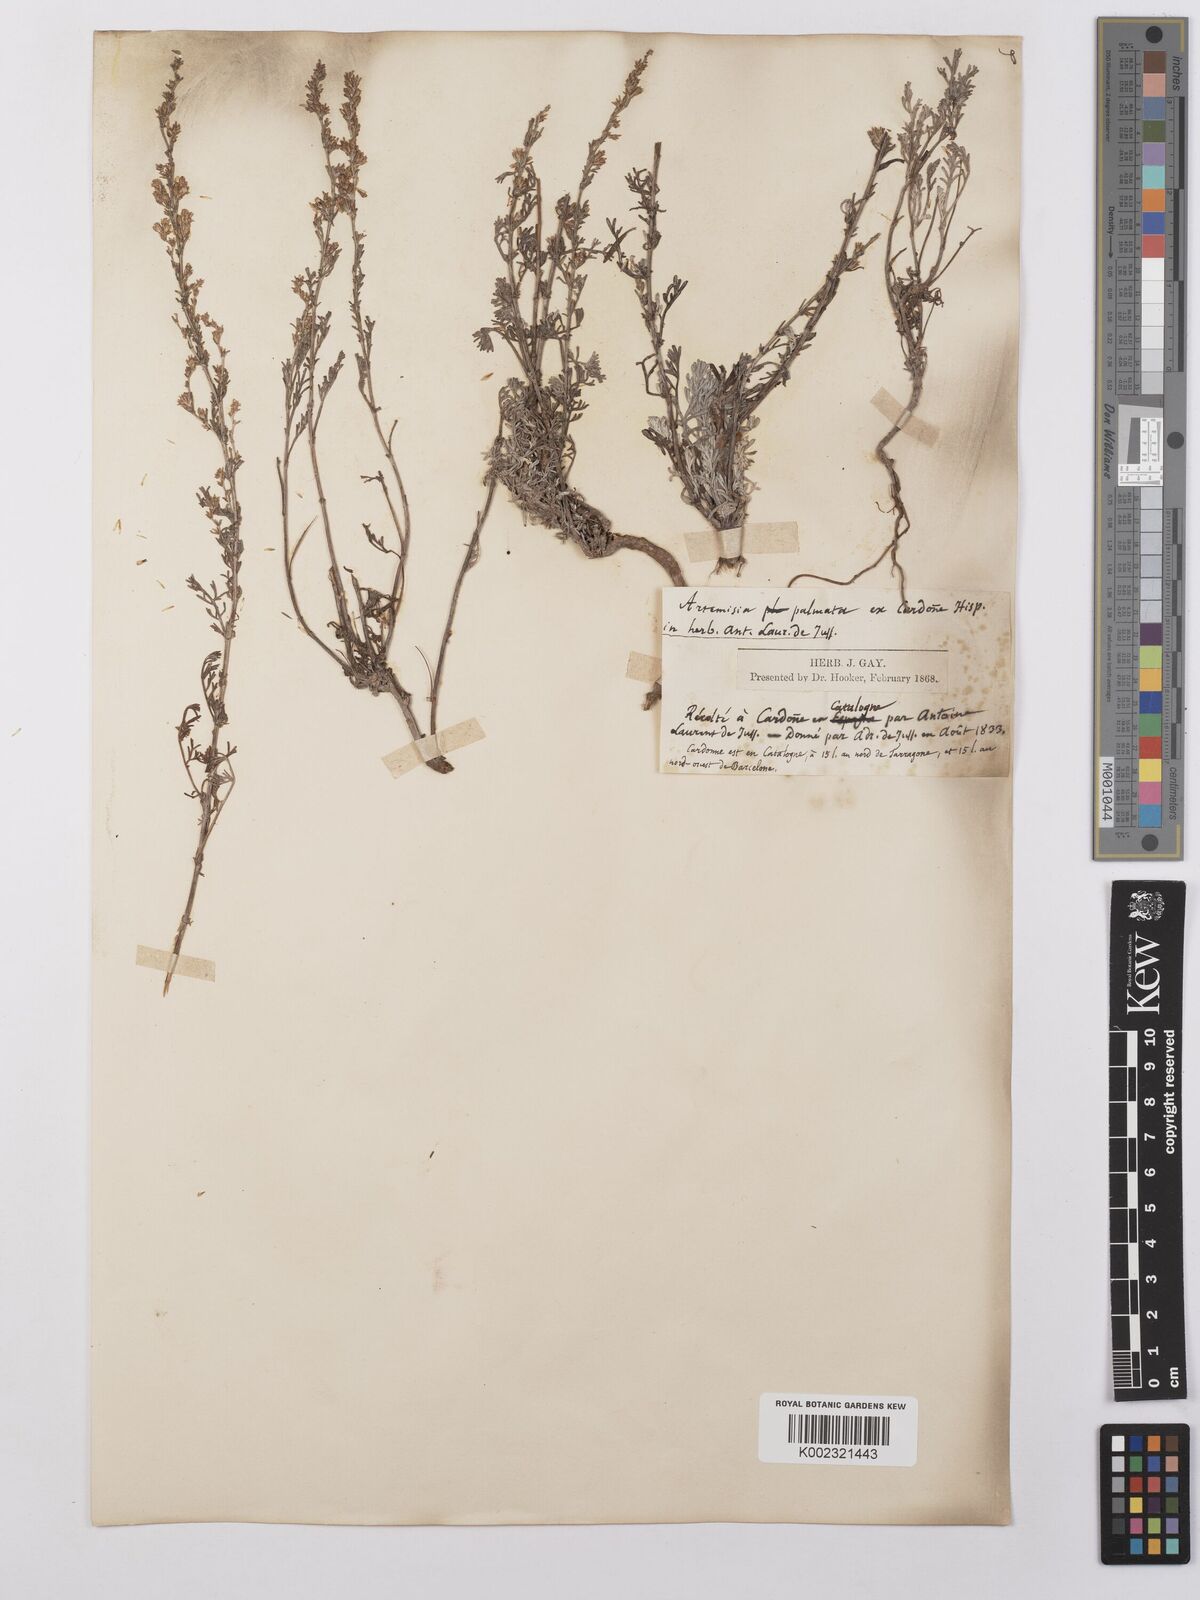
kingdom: Plantae
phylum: Tracheophyta
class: Magnoliopsida
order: Asterales
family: Asteraceae
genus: Artemisia
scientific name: Artemisia caerulescens
